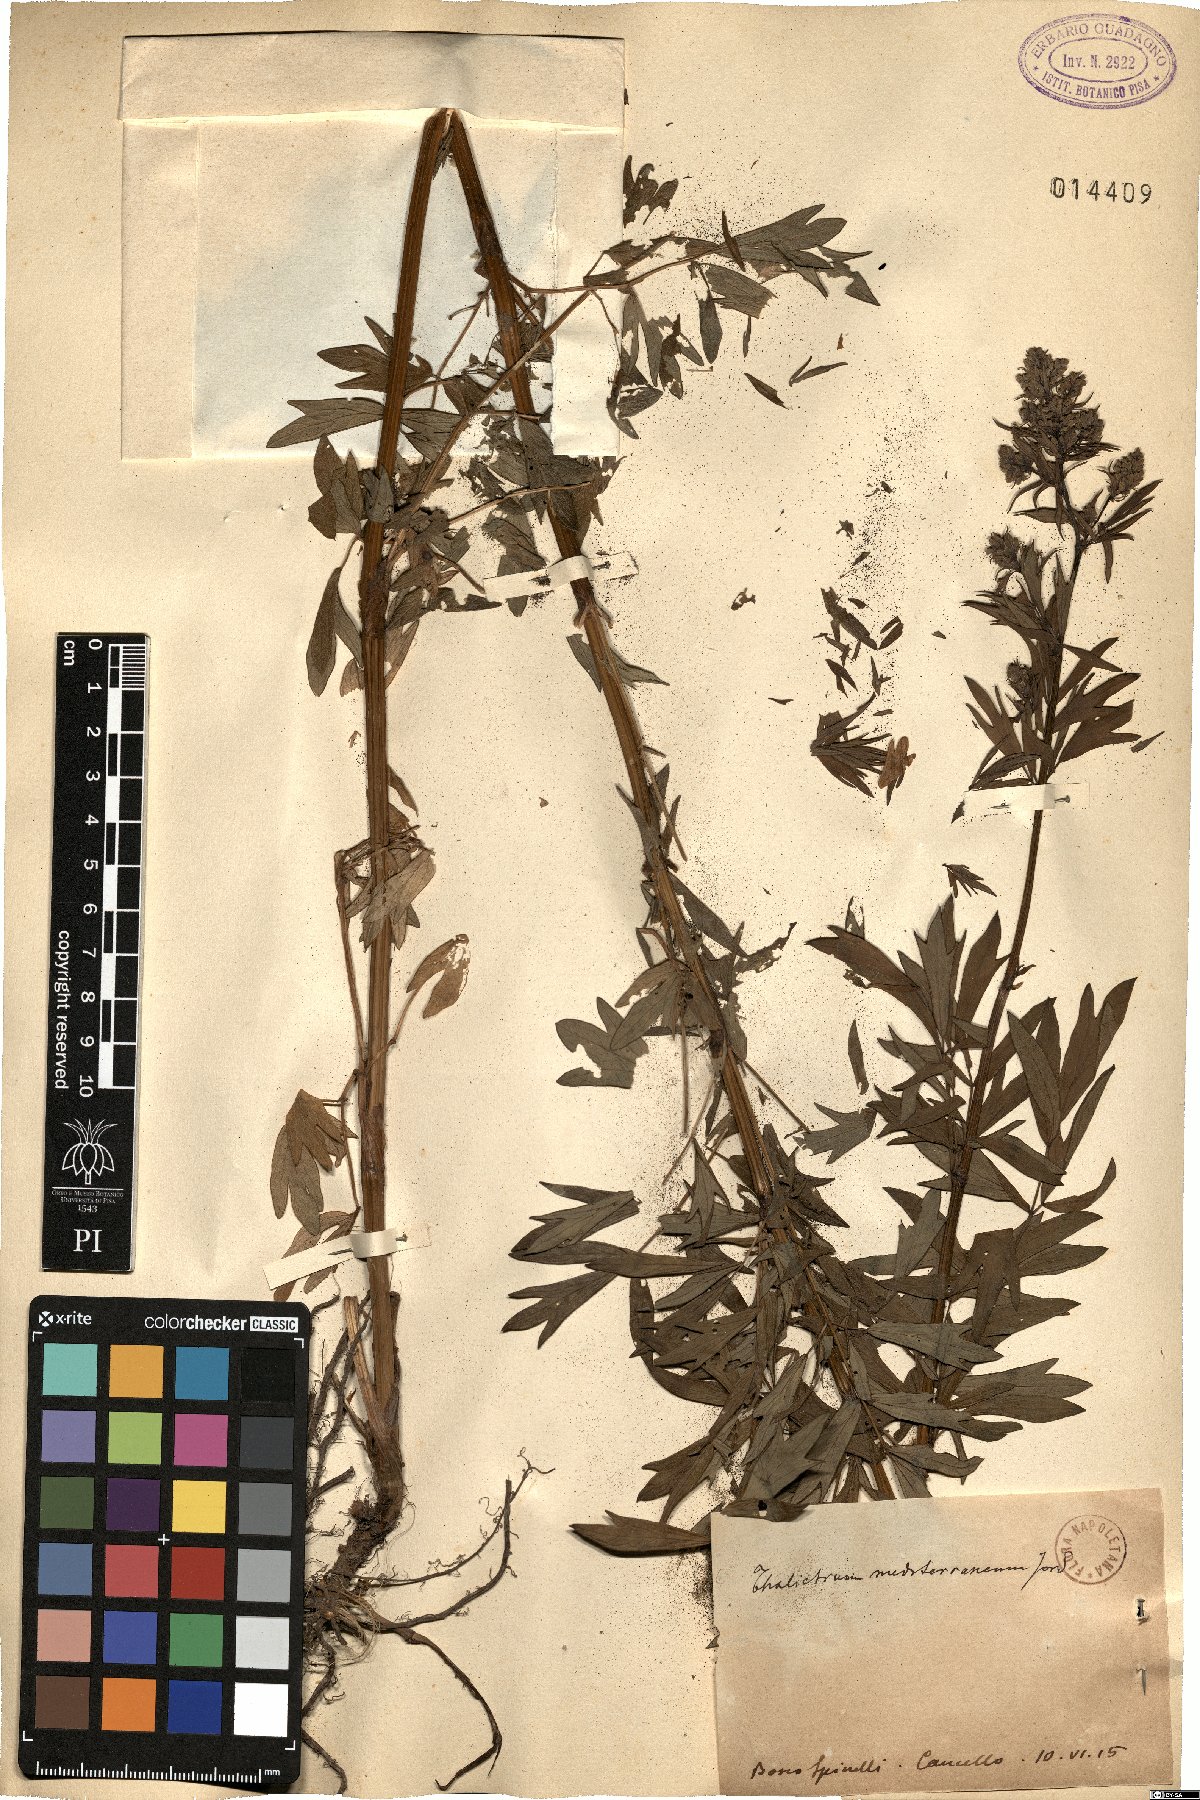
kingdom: Plantae
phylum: Tracheophyta
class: Magnoliopsida
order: Ranunculales
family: Ranunculaceae
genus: Thalictrum
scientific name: Thalictrum flavum
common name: Common meadow-rue
